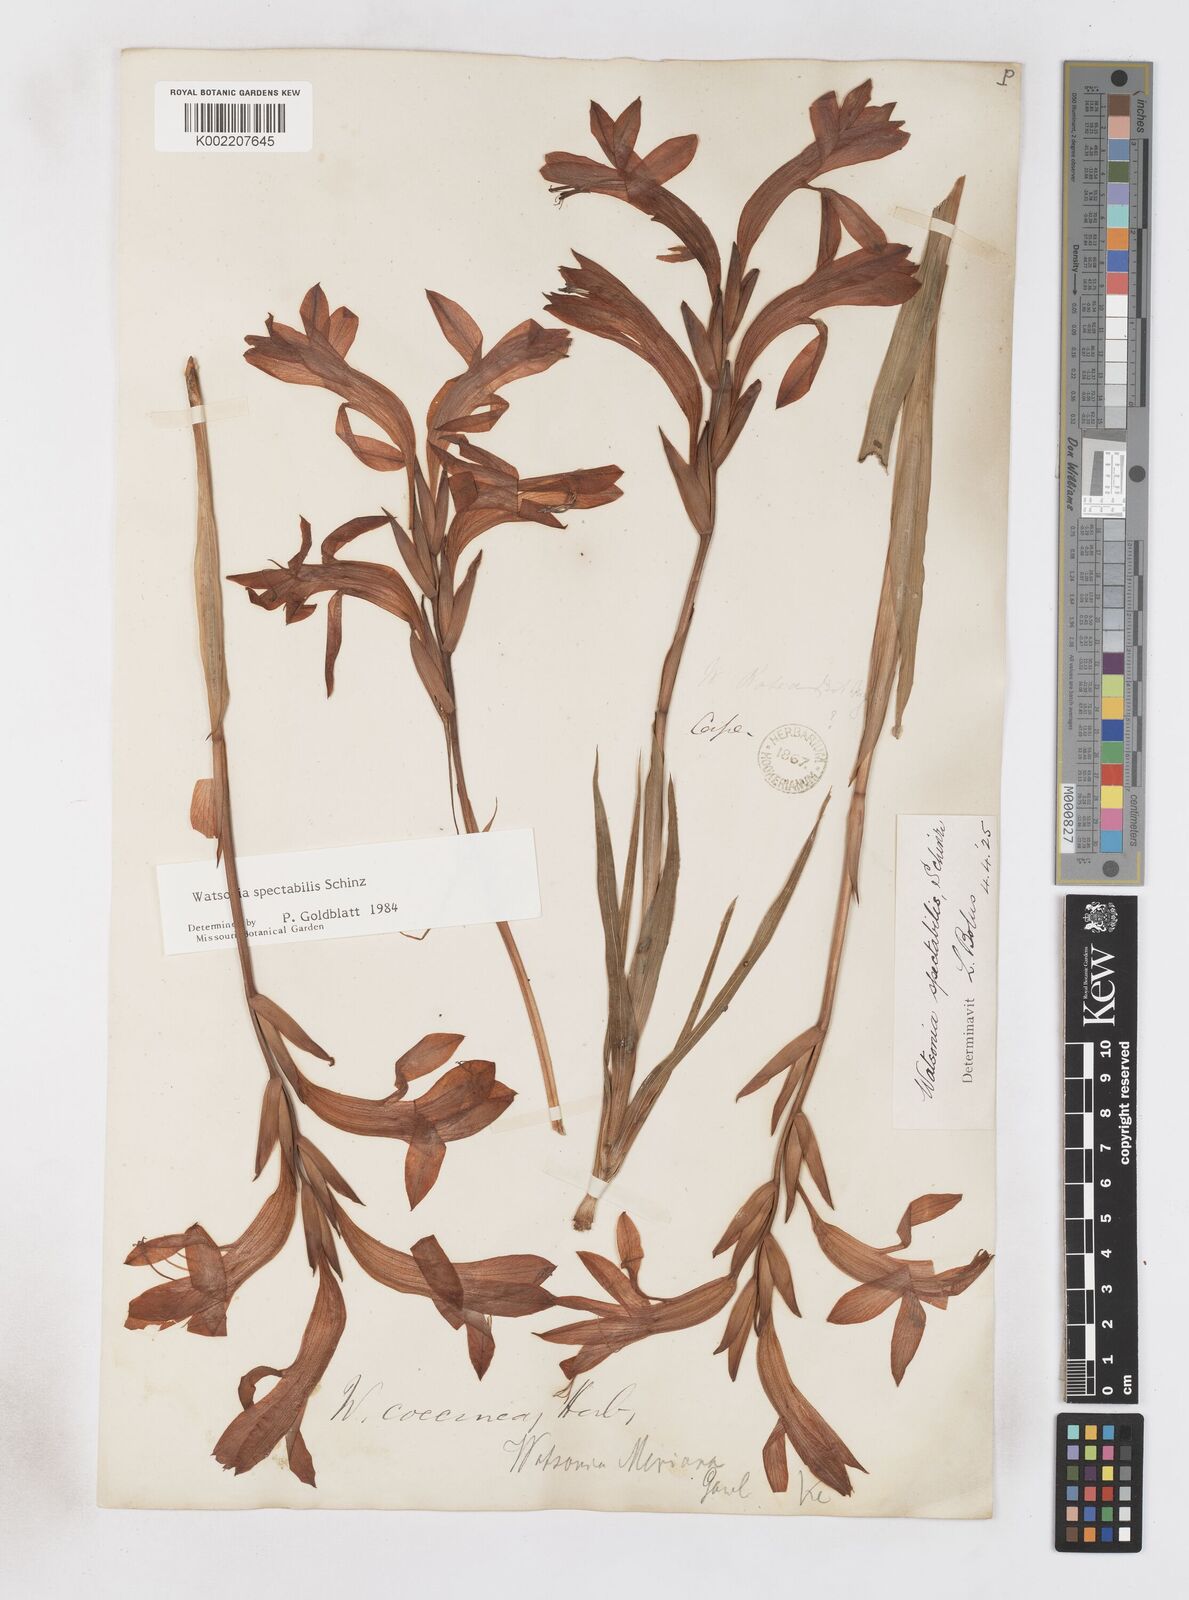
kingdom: Plantae
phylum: Tracheophyta
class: Liliopsida
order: Asparagales
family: Iridaceae
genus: Watsonia
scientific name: Watsonia spectabilis
